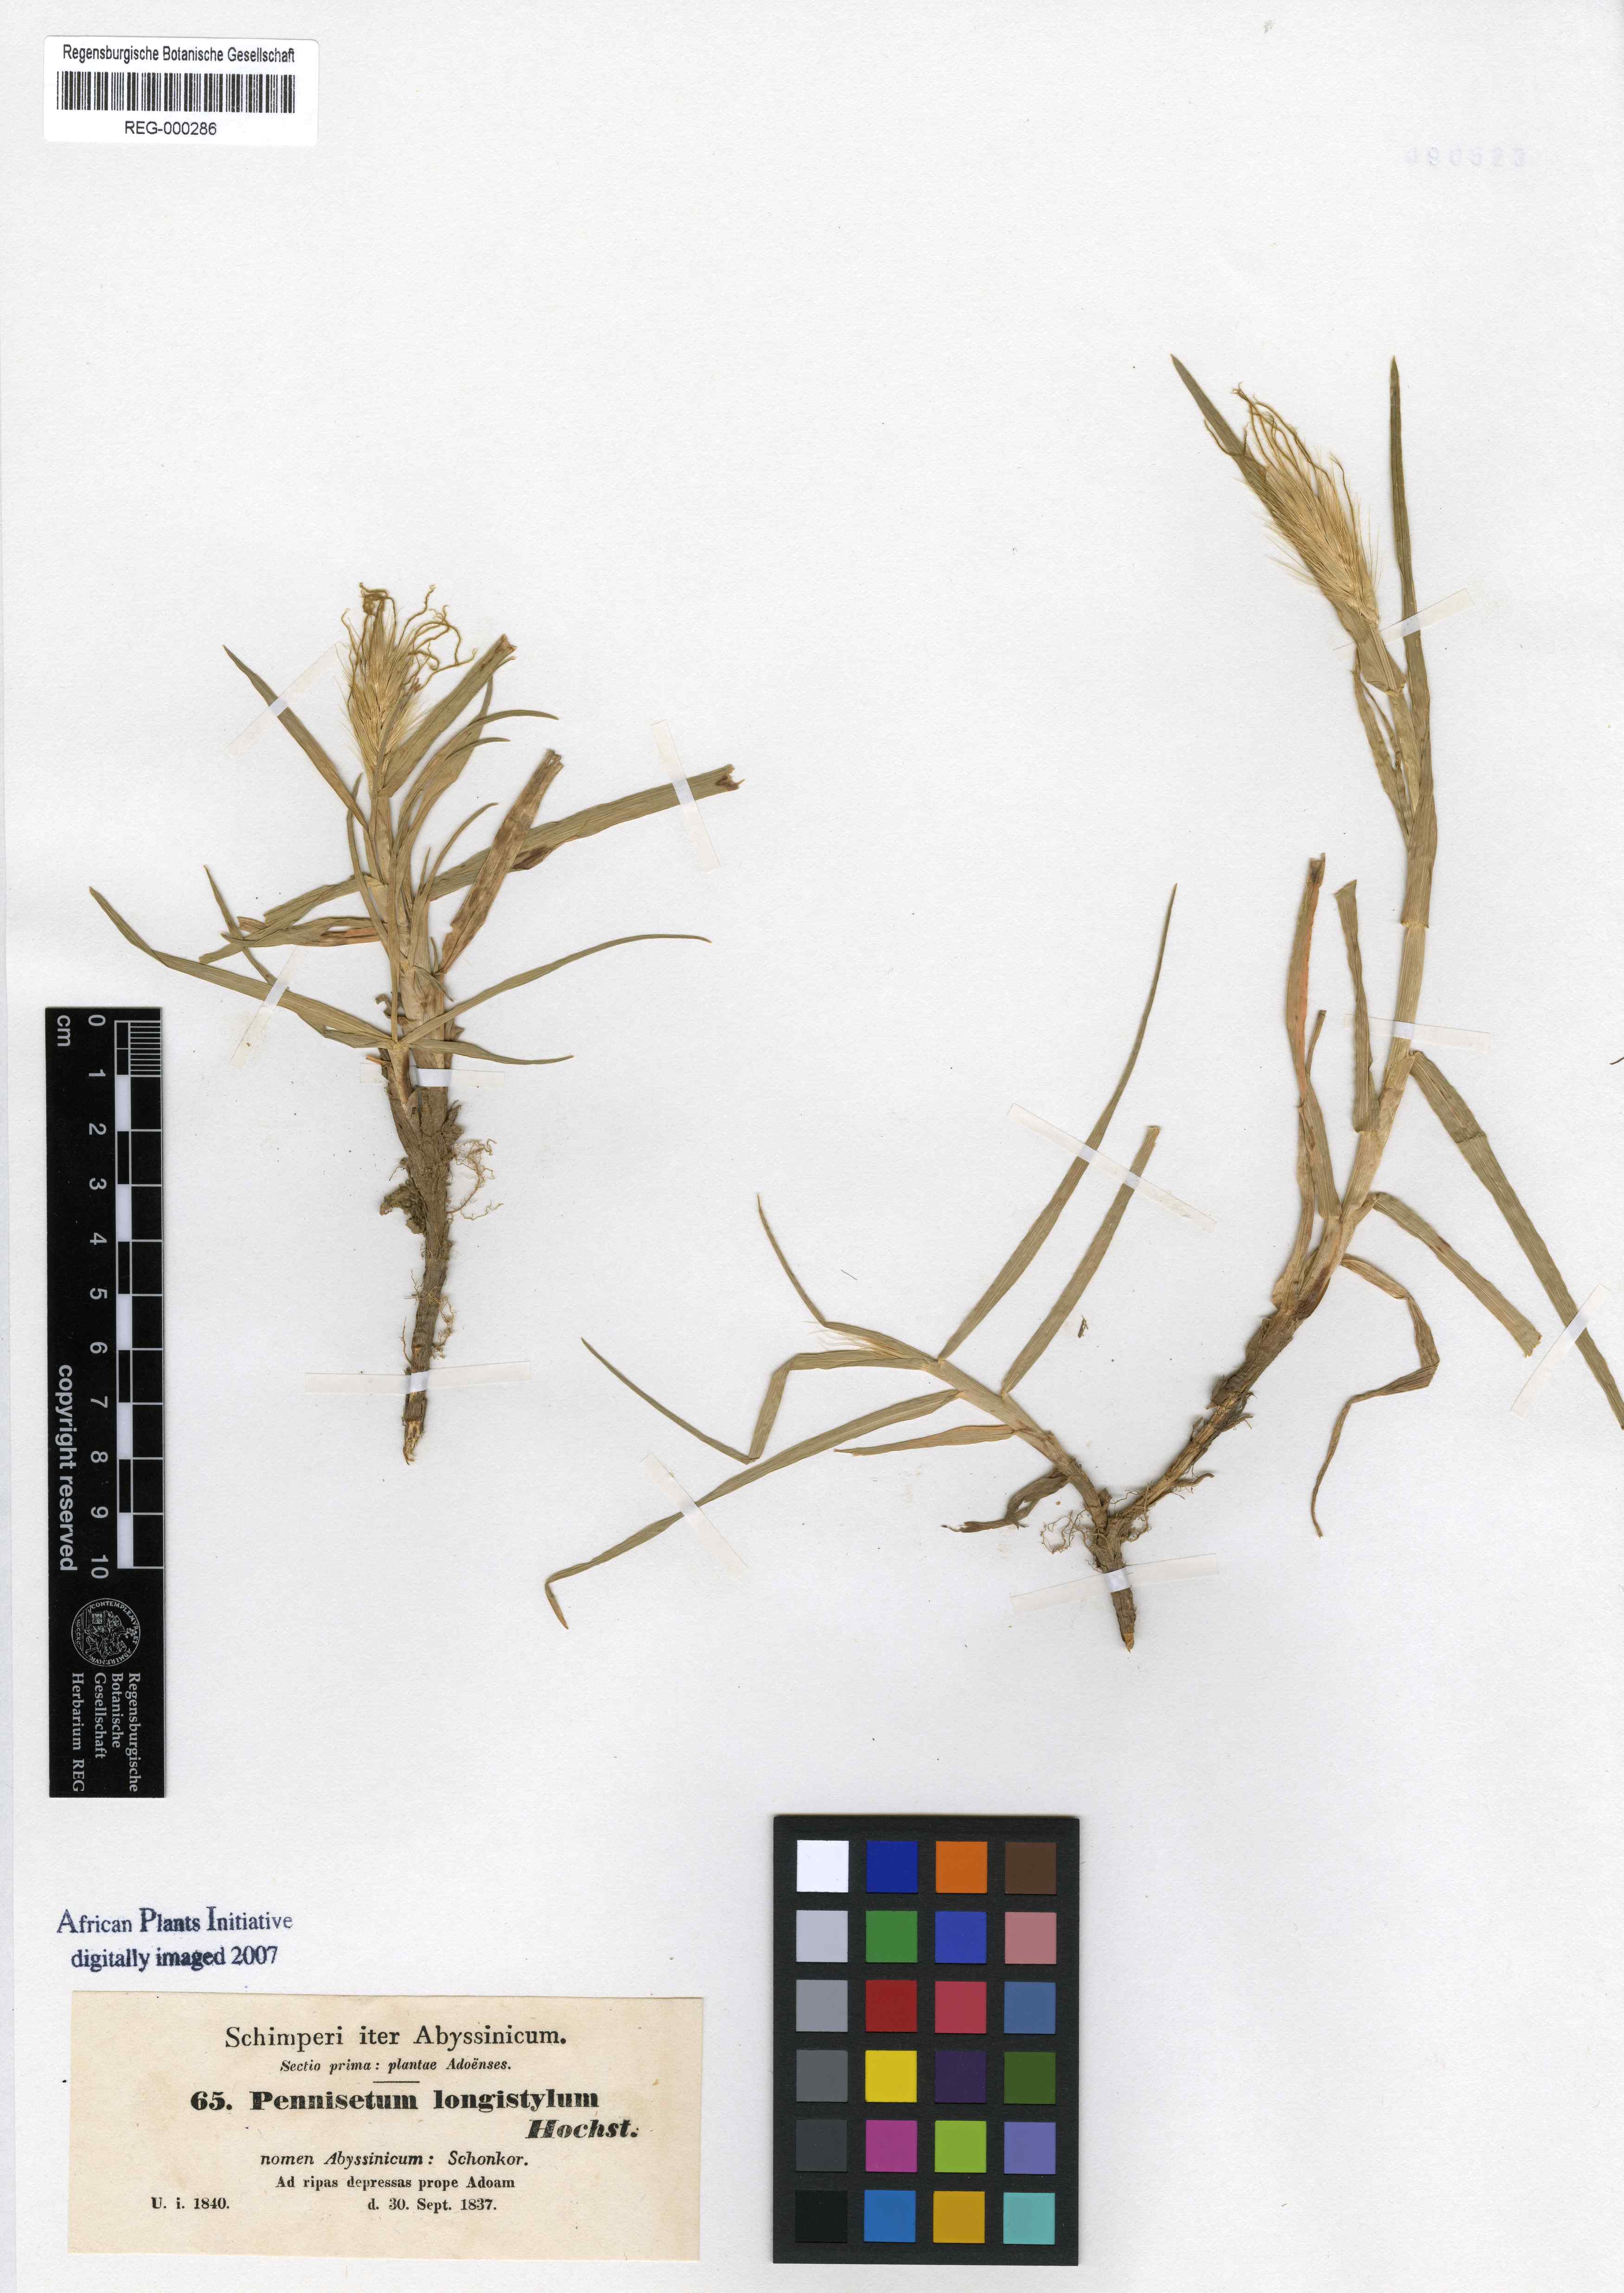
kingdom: Plantae
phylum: Tracheophyta
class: Liliopsida
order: Poales
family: Poaceae
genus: Cenchrus
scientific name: Cenchrus longistylus
